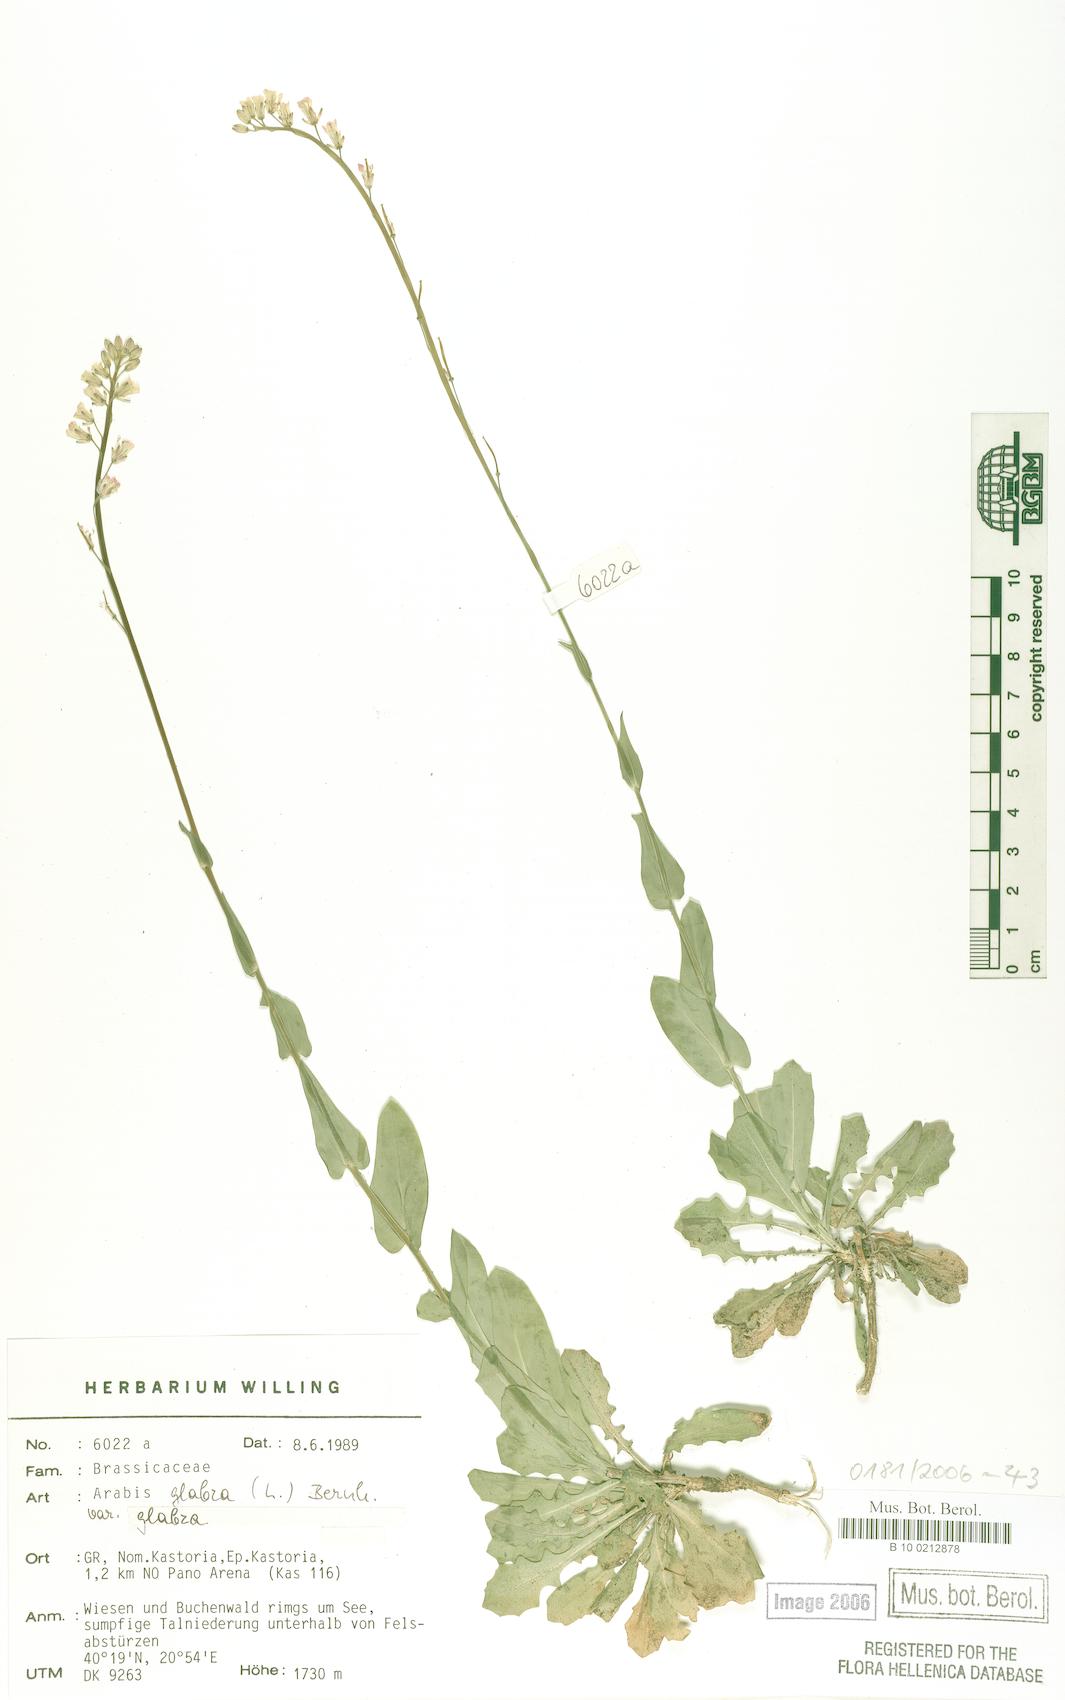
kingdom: Plantae
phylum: Tracheophyta
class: Magnoliopsida
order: Brassicales
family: Brassicaceae
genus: Turritis
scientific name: Turritis glabra
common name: Tower rockcress
